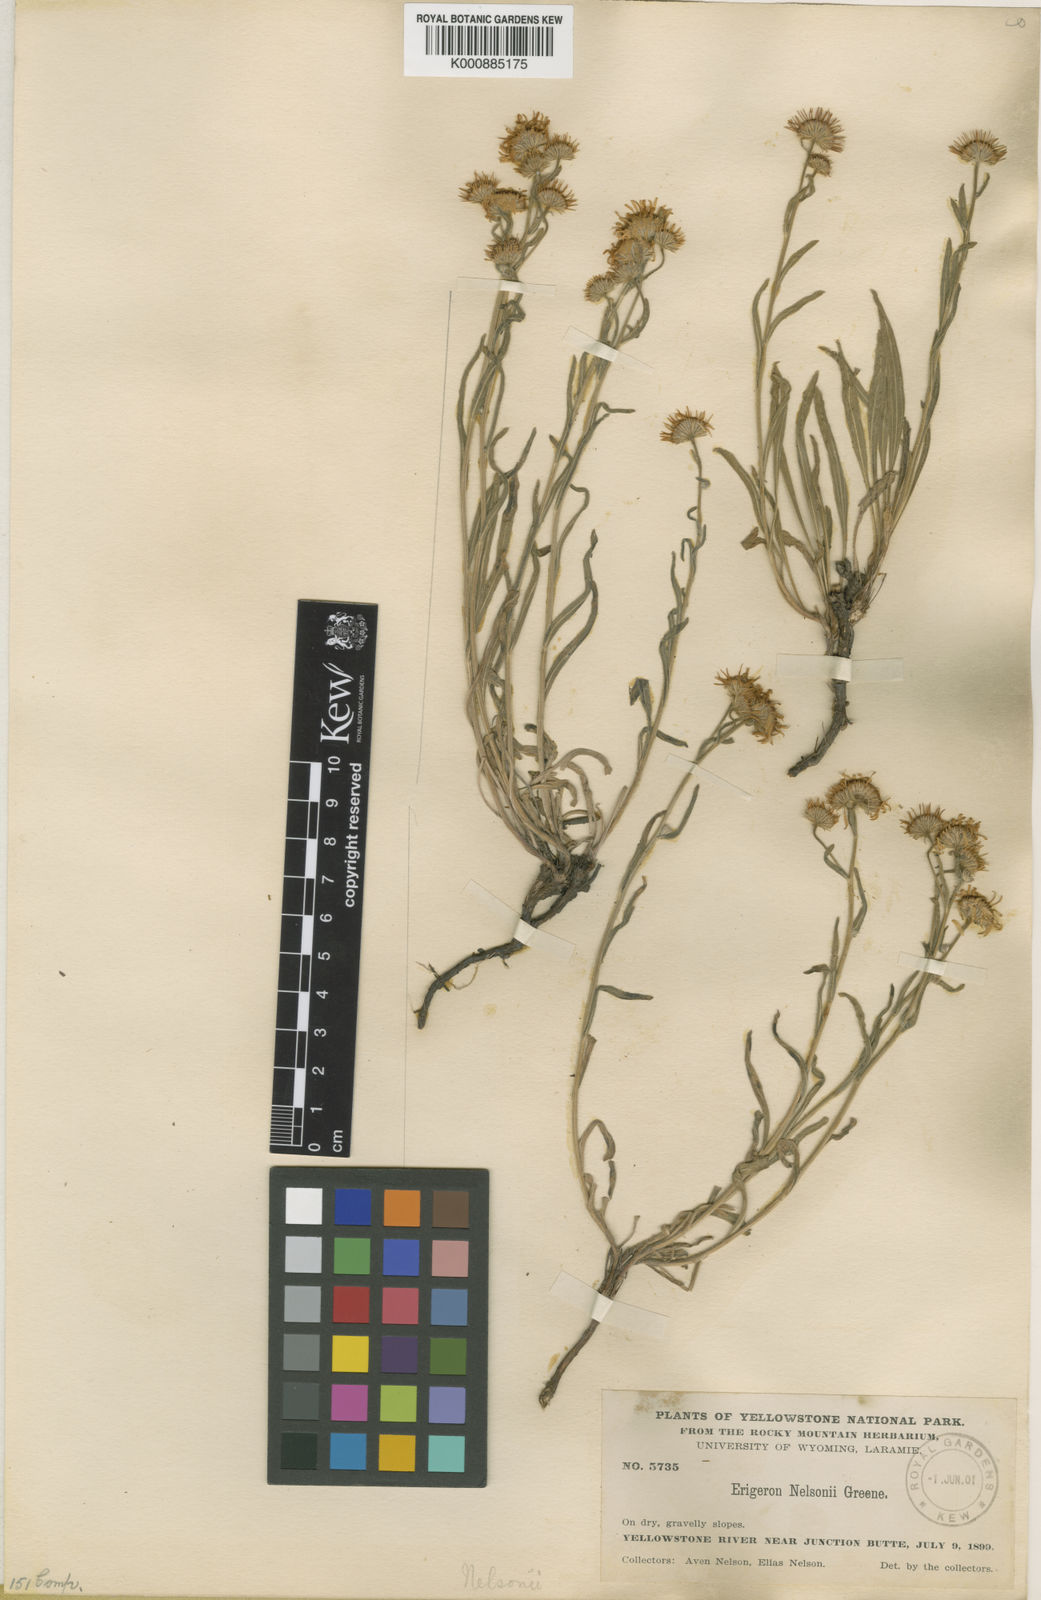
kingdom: Plantae
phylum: Tracheophyta
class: Magnoliopsida
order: Asterales
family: Asteraceae
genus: Erigeron
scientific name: Erigeron
